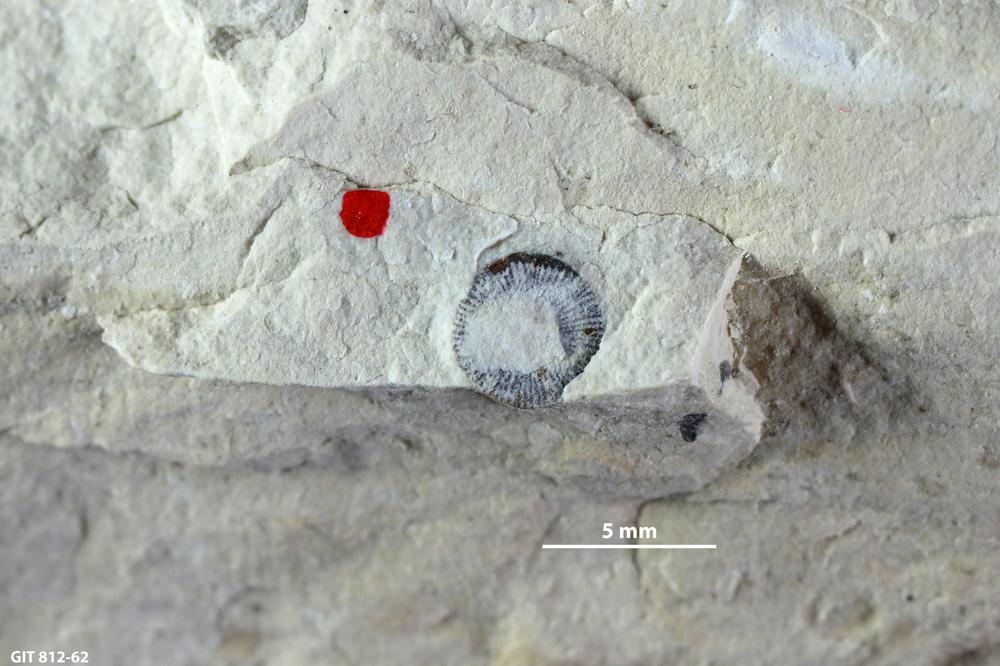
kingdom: Animalia
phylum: Echinodermata
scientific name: Echinodermata
